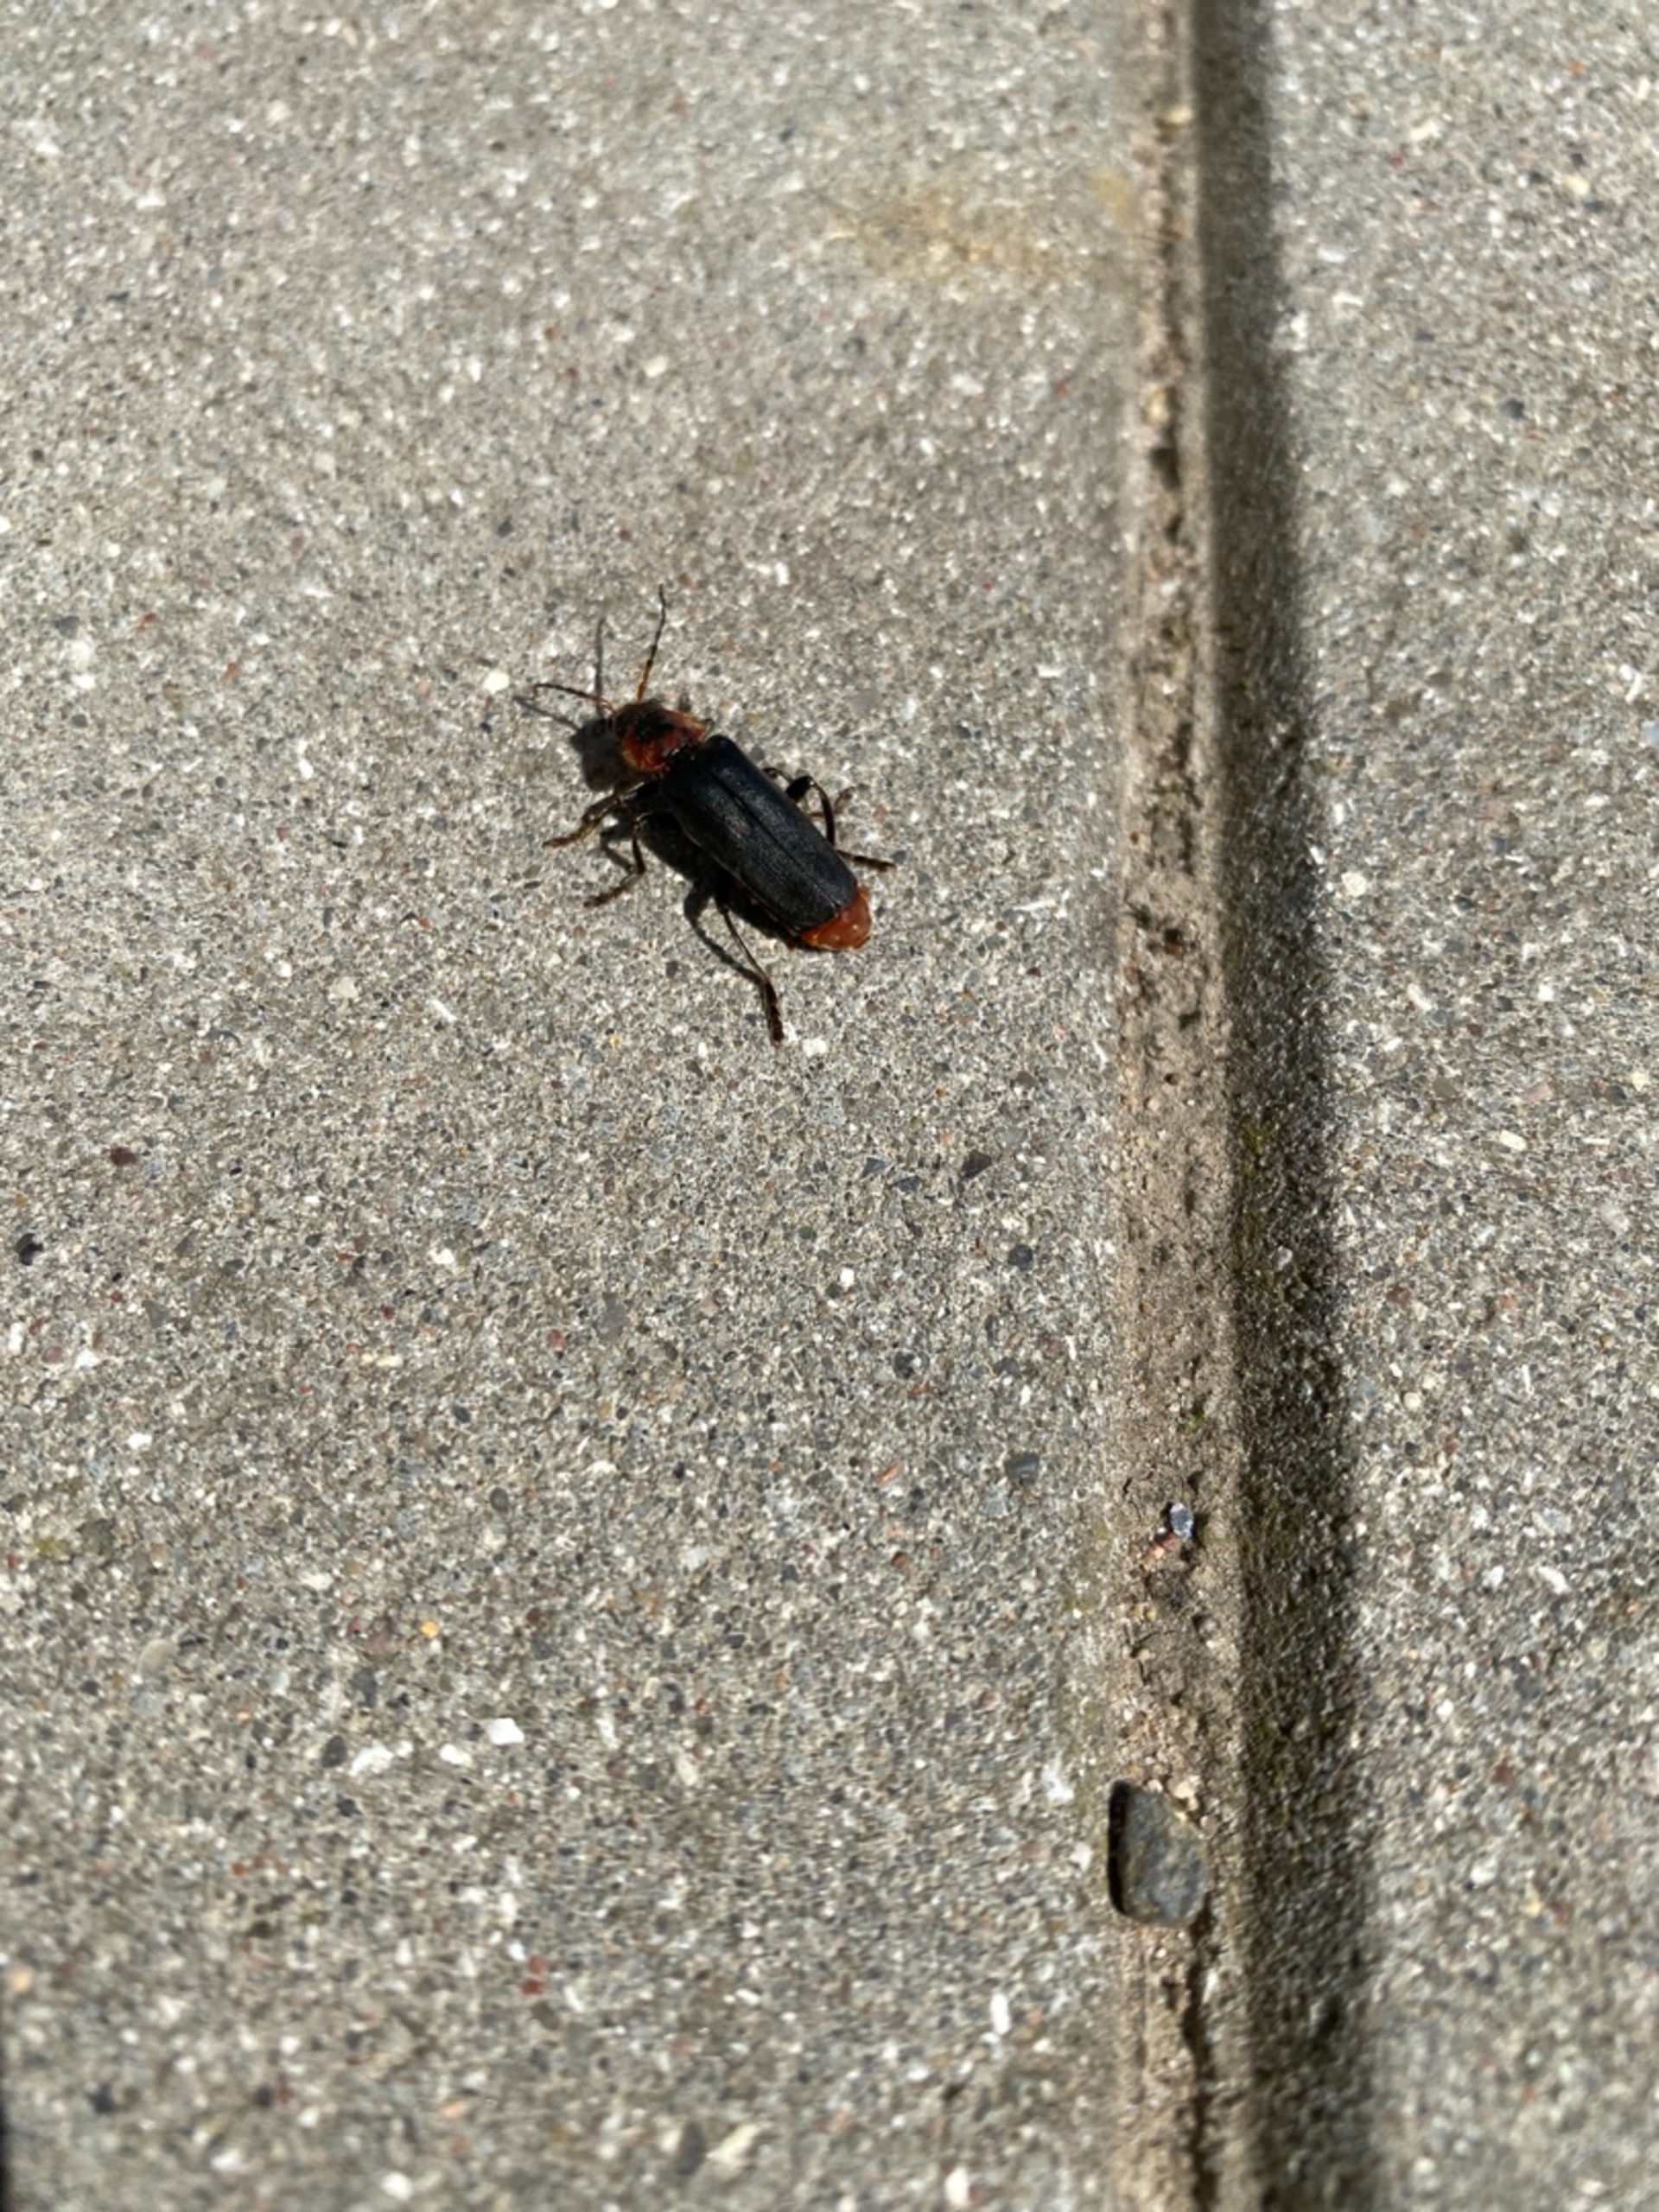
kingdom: Animalia
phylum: Arthropoda
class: Insecta
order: Coleoptera
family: Cantharidae
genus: Cantharis
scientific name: Cantharis fusca
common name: Stor blødvinge
